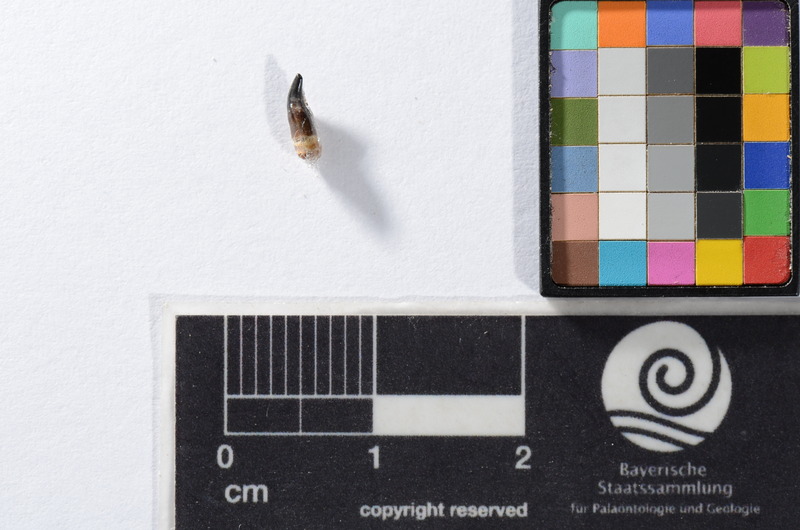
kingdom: Animalia
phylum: Chordata
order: Cypriniformes
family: Cyprinidae
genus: Capitodus
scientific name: Capitodus
